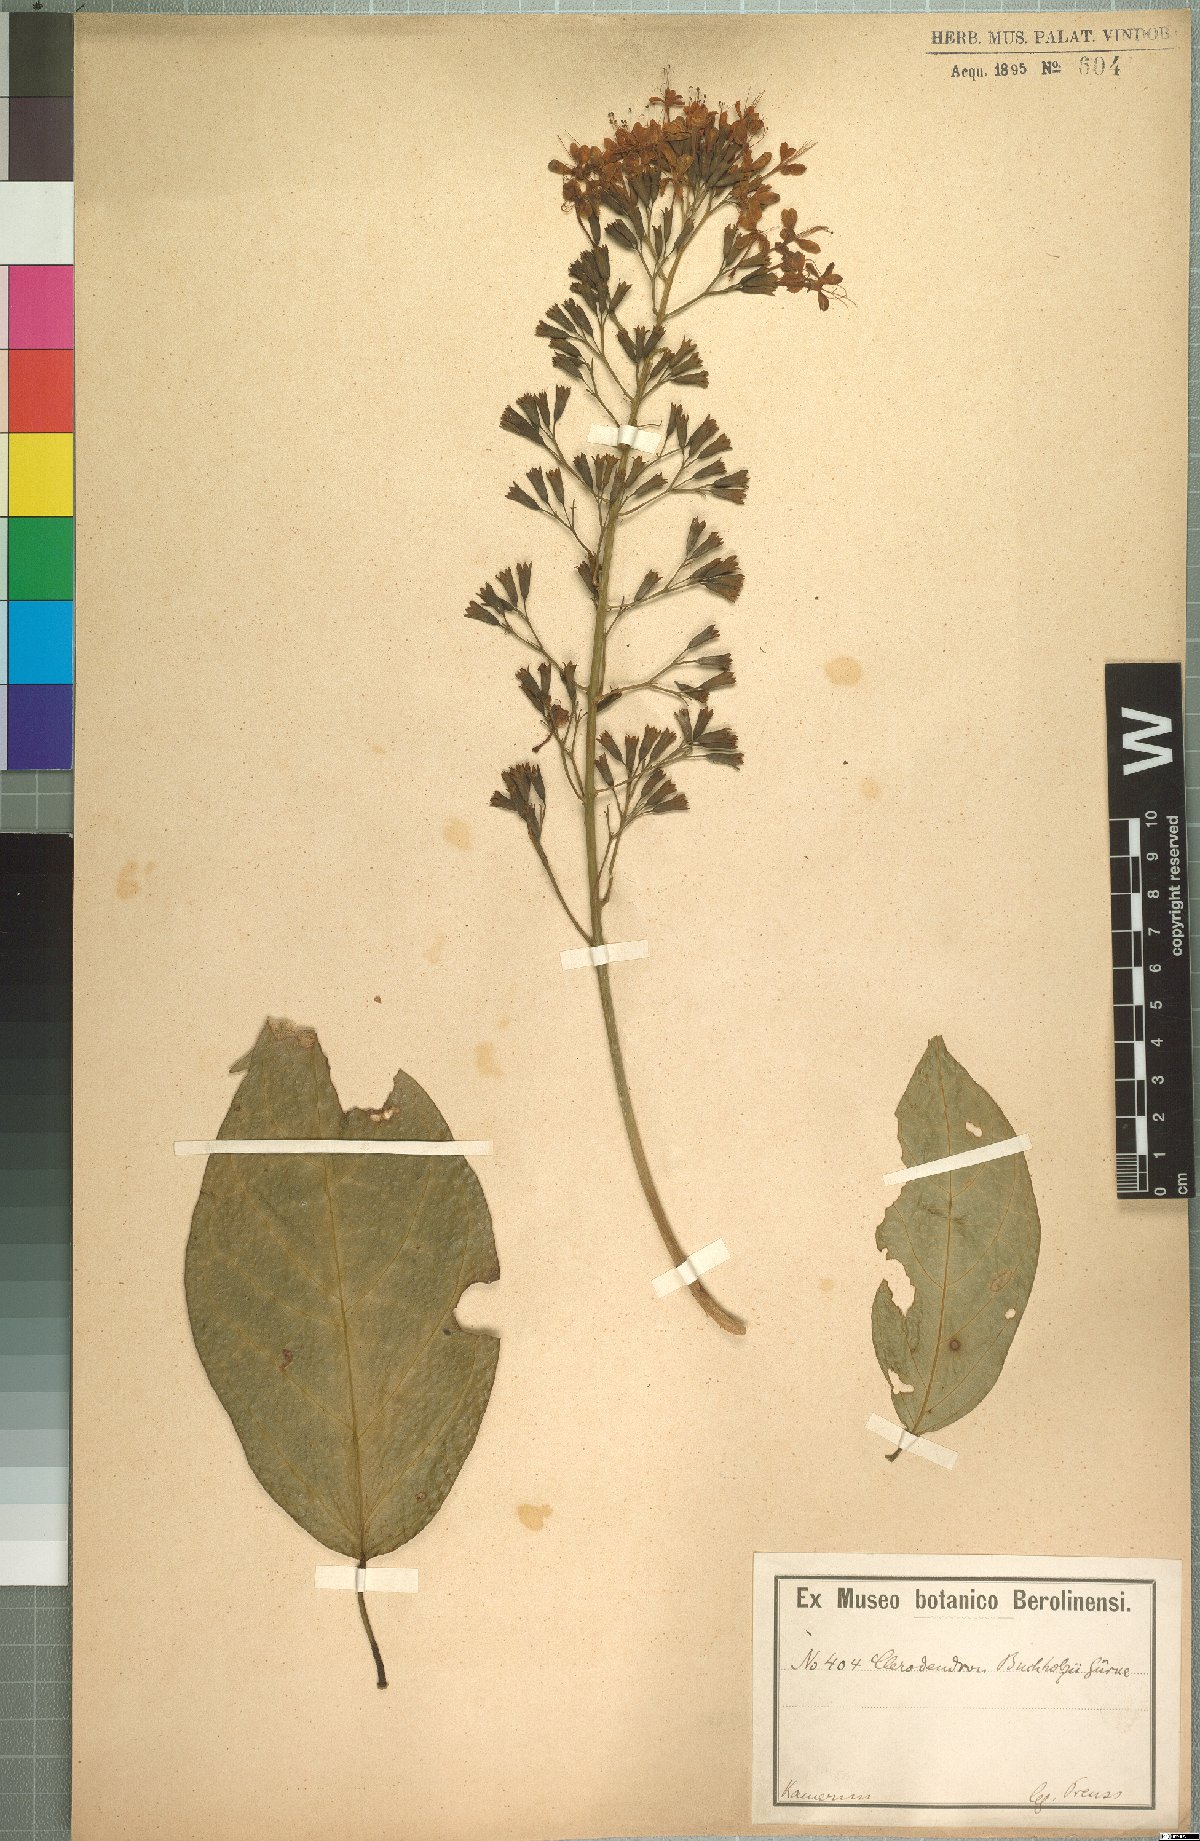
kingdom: Plantae
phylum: Tracheophyta
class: Magnoliopsida
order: Lamiales
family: Lamiaceae
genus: Clerodendrum
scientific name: Clerodendrum silvanum
